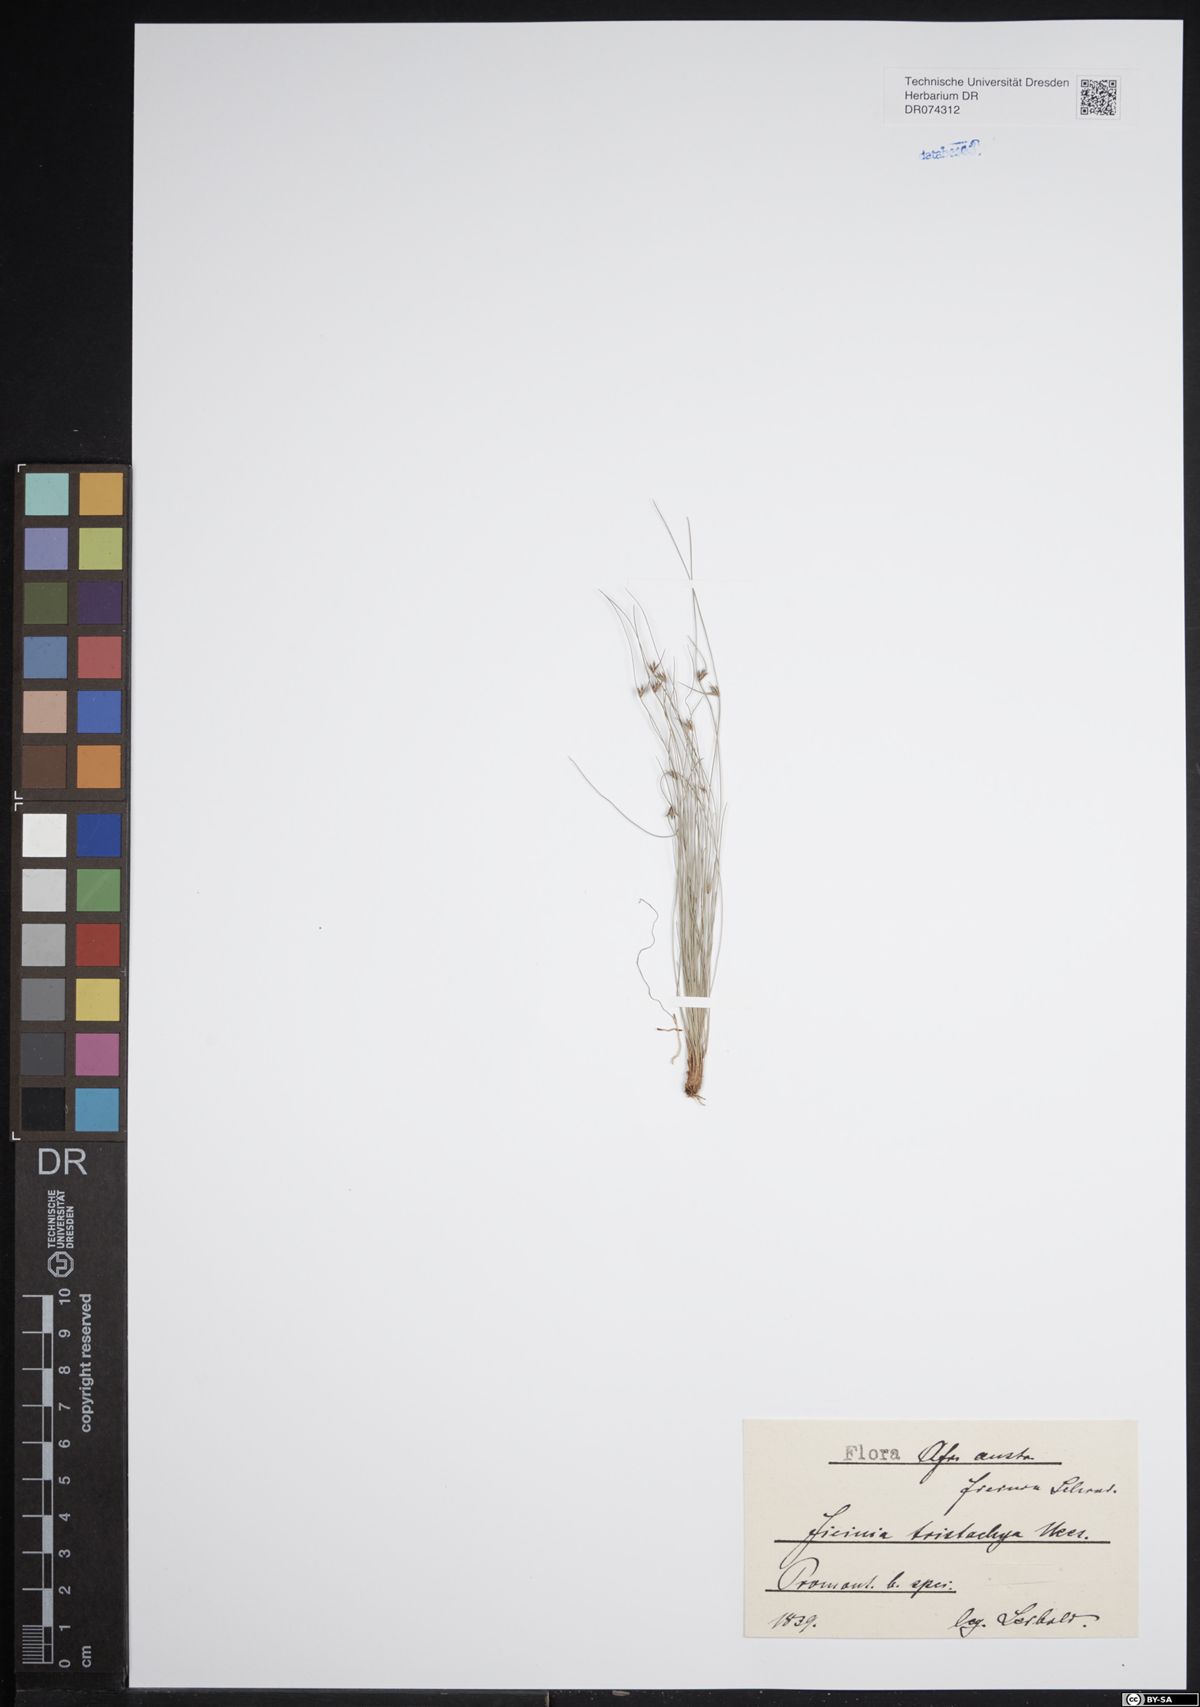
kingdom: Plantae
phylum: Tracheophyta
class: Liliopsida
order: Poales
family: Cyperaceae
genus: Ficinia
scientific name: Ficinia tristachya
